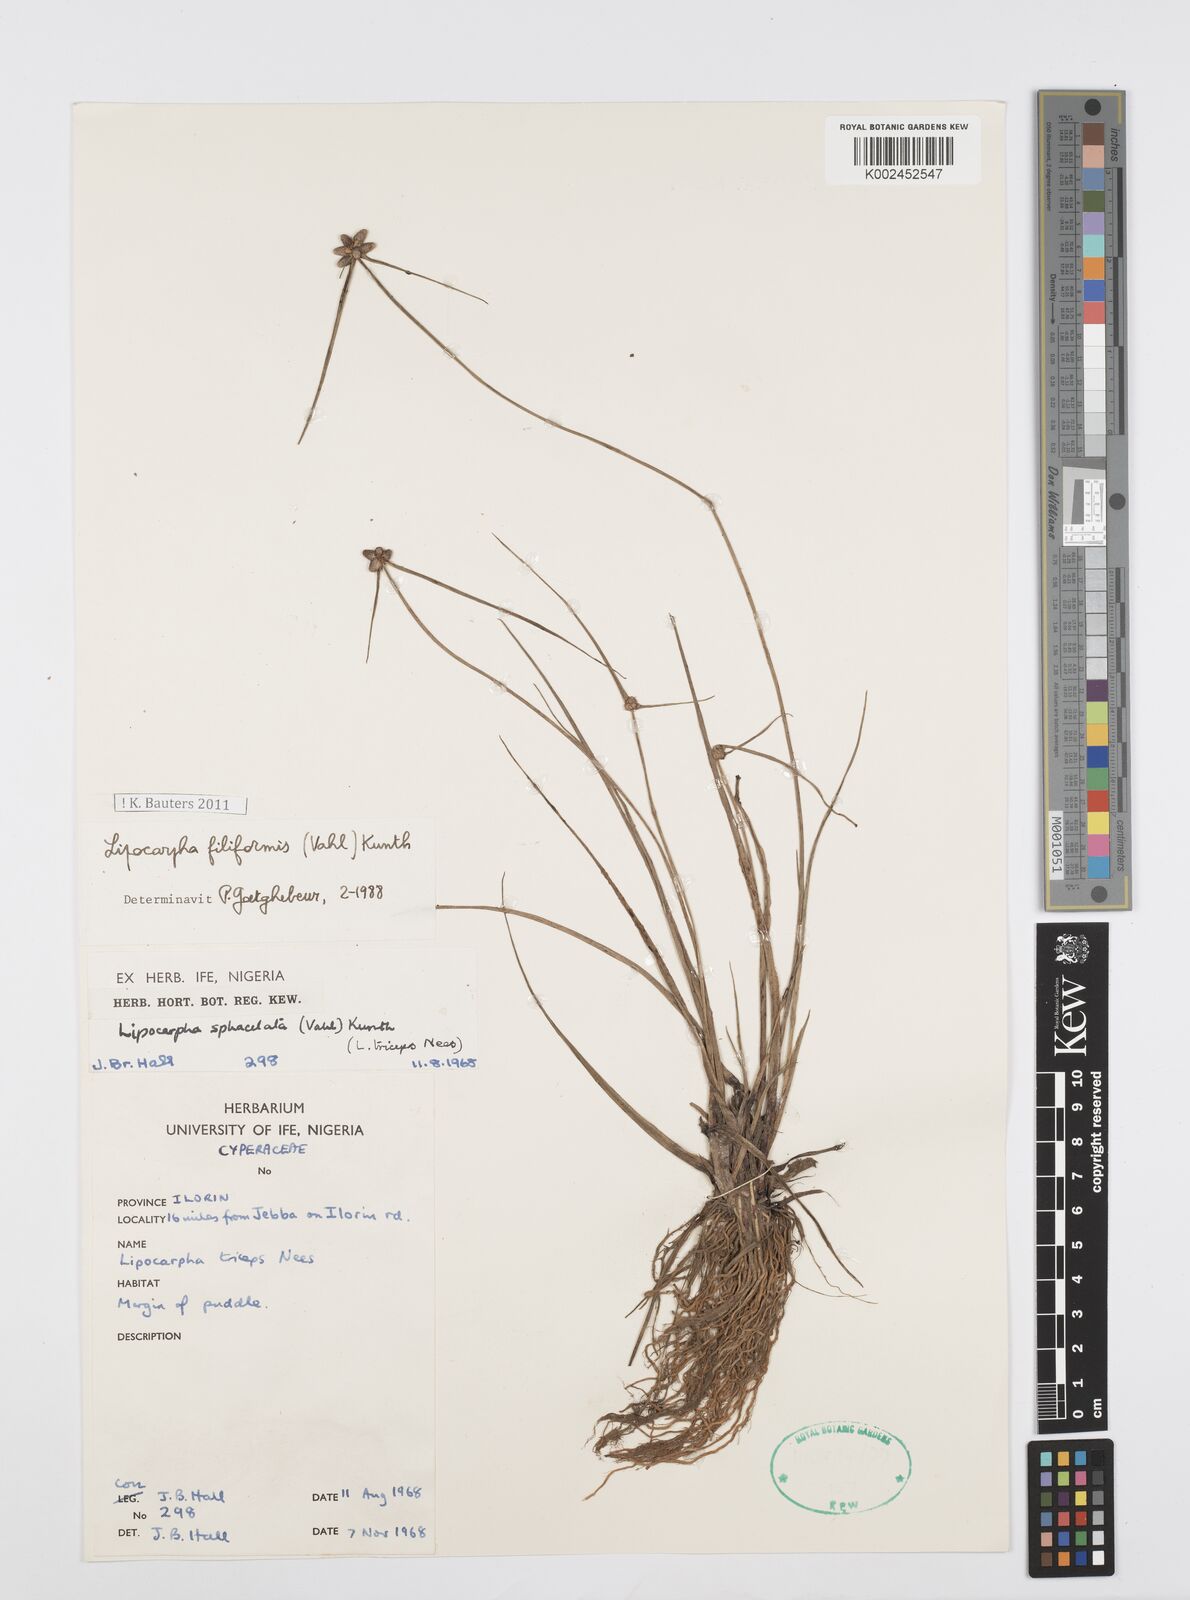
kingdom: Plantae
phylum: Tracheophyta
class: Liliopsida
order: Poales
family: Cyperaceae
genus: Cyperus
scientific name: Cyperus filiformis
